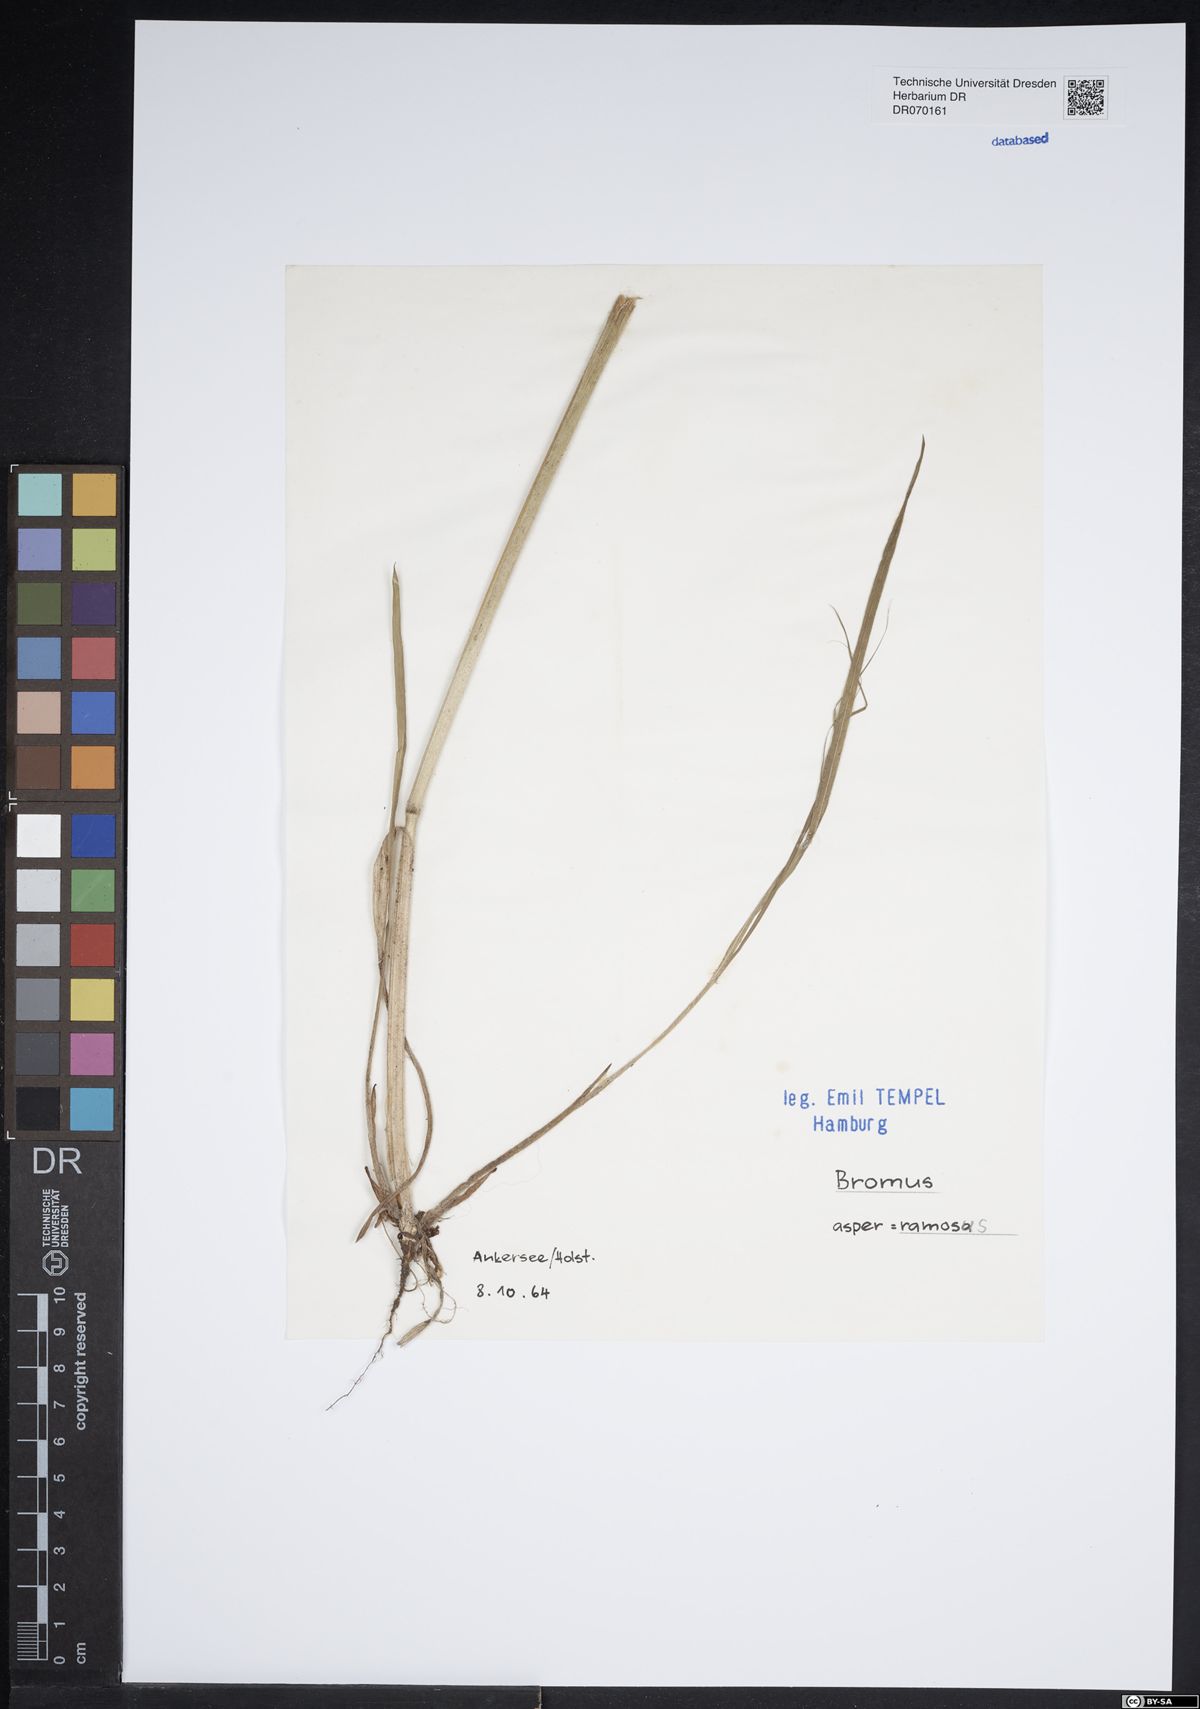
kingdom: Plantae
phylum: Tracheophyta
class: Liliopsida
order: Poales
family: Poaceae
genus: Bromus
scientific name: Bromus ramosus
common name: Hairy brome
